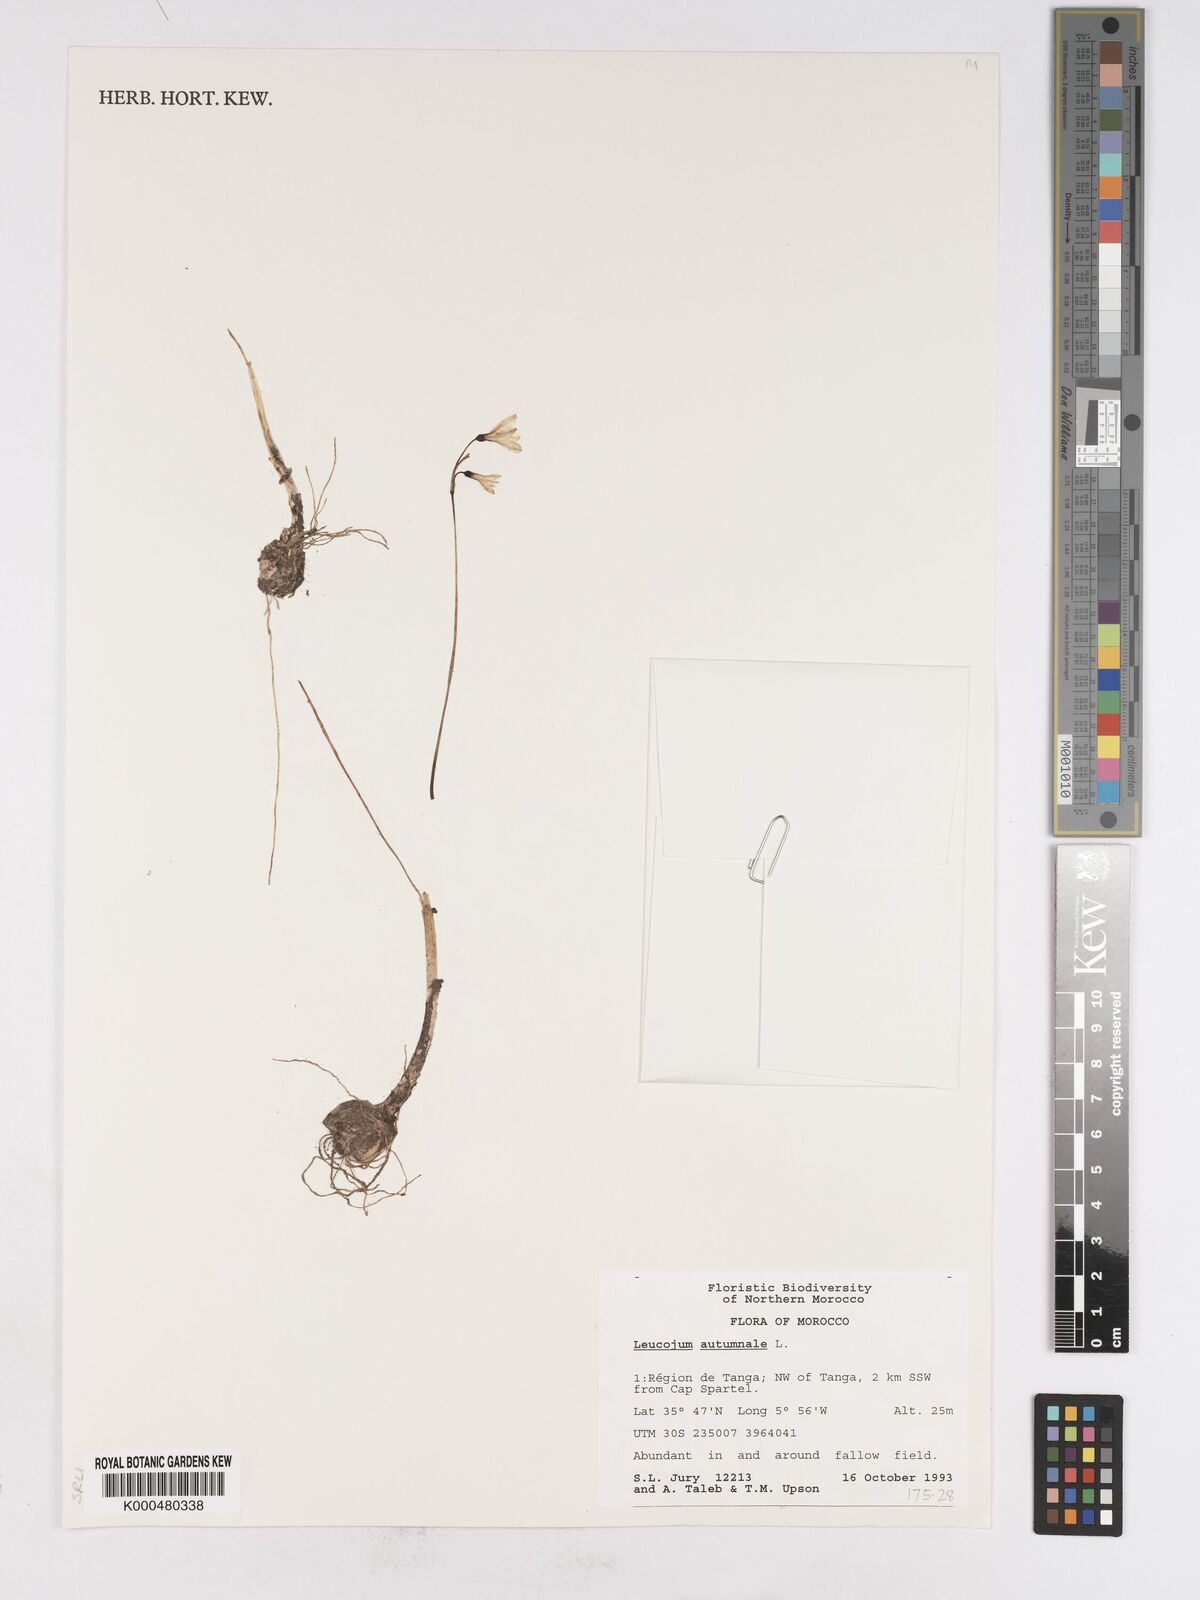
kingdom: Plantae
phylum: Tracheophyta
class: Liliopsida
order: Asparagales
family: Amaryllidaceae
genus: Acis
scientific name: Acis autumnalis
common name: Autumn snowflake
